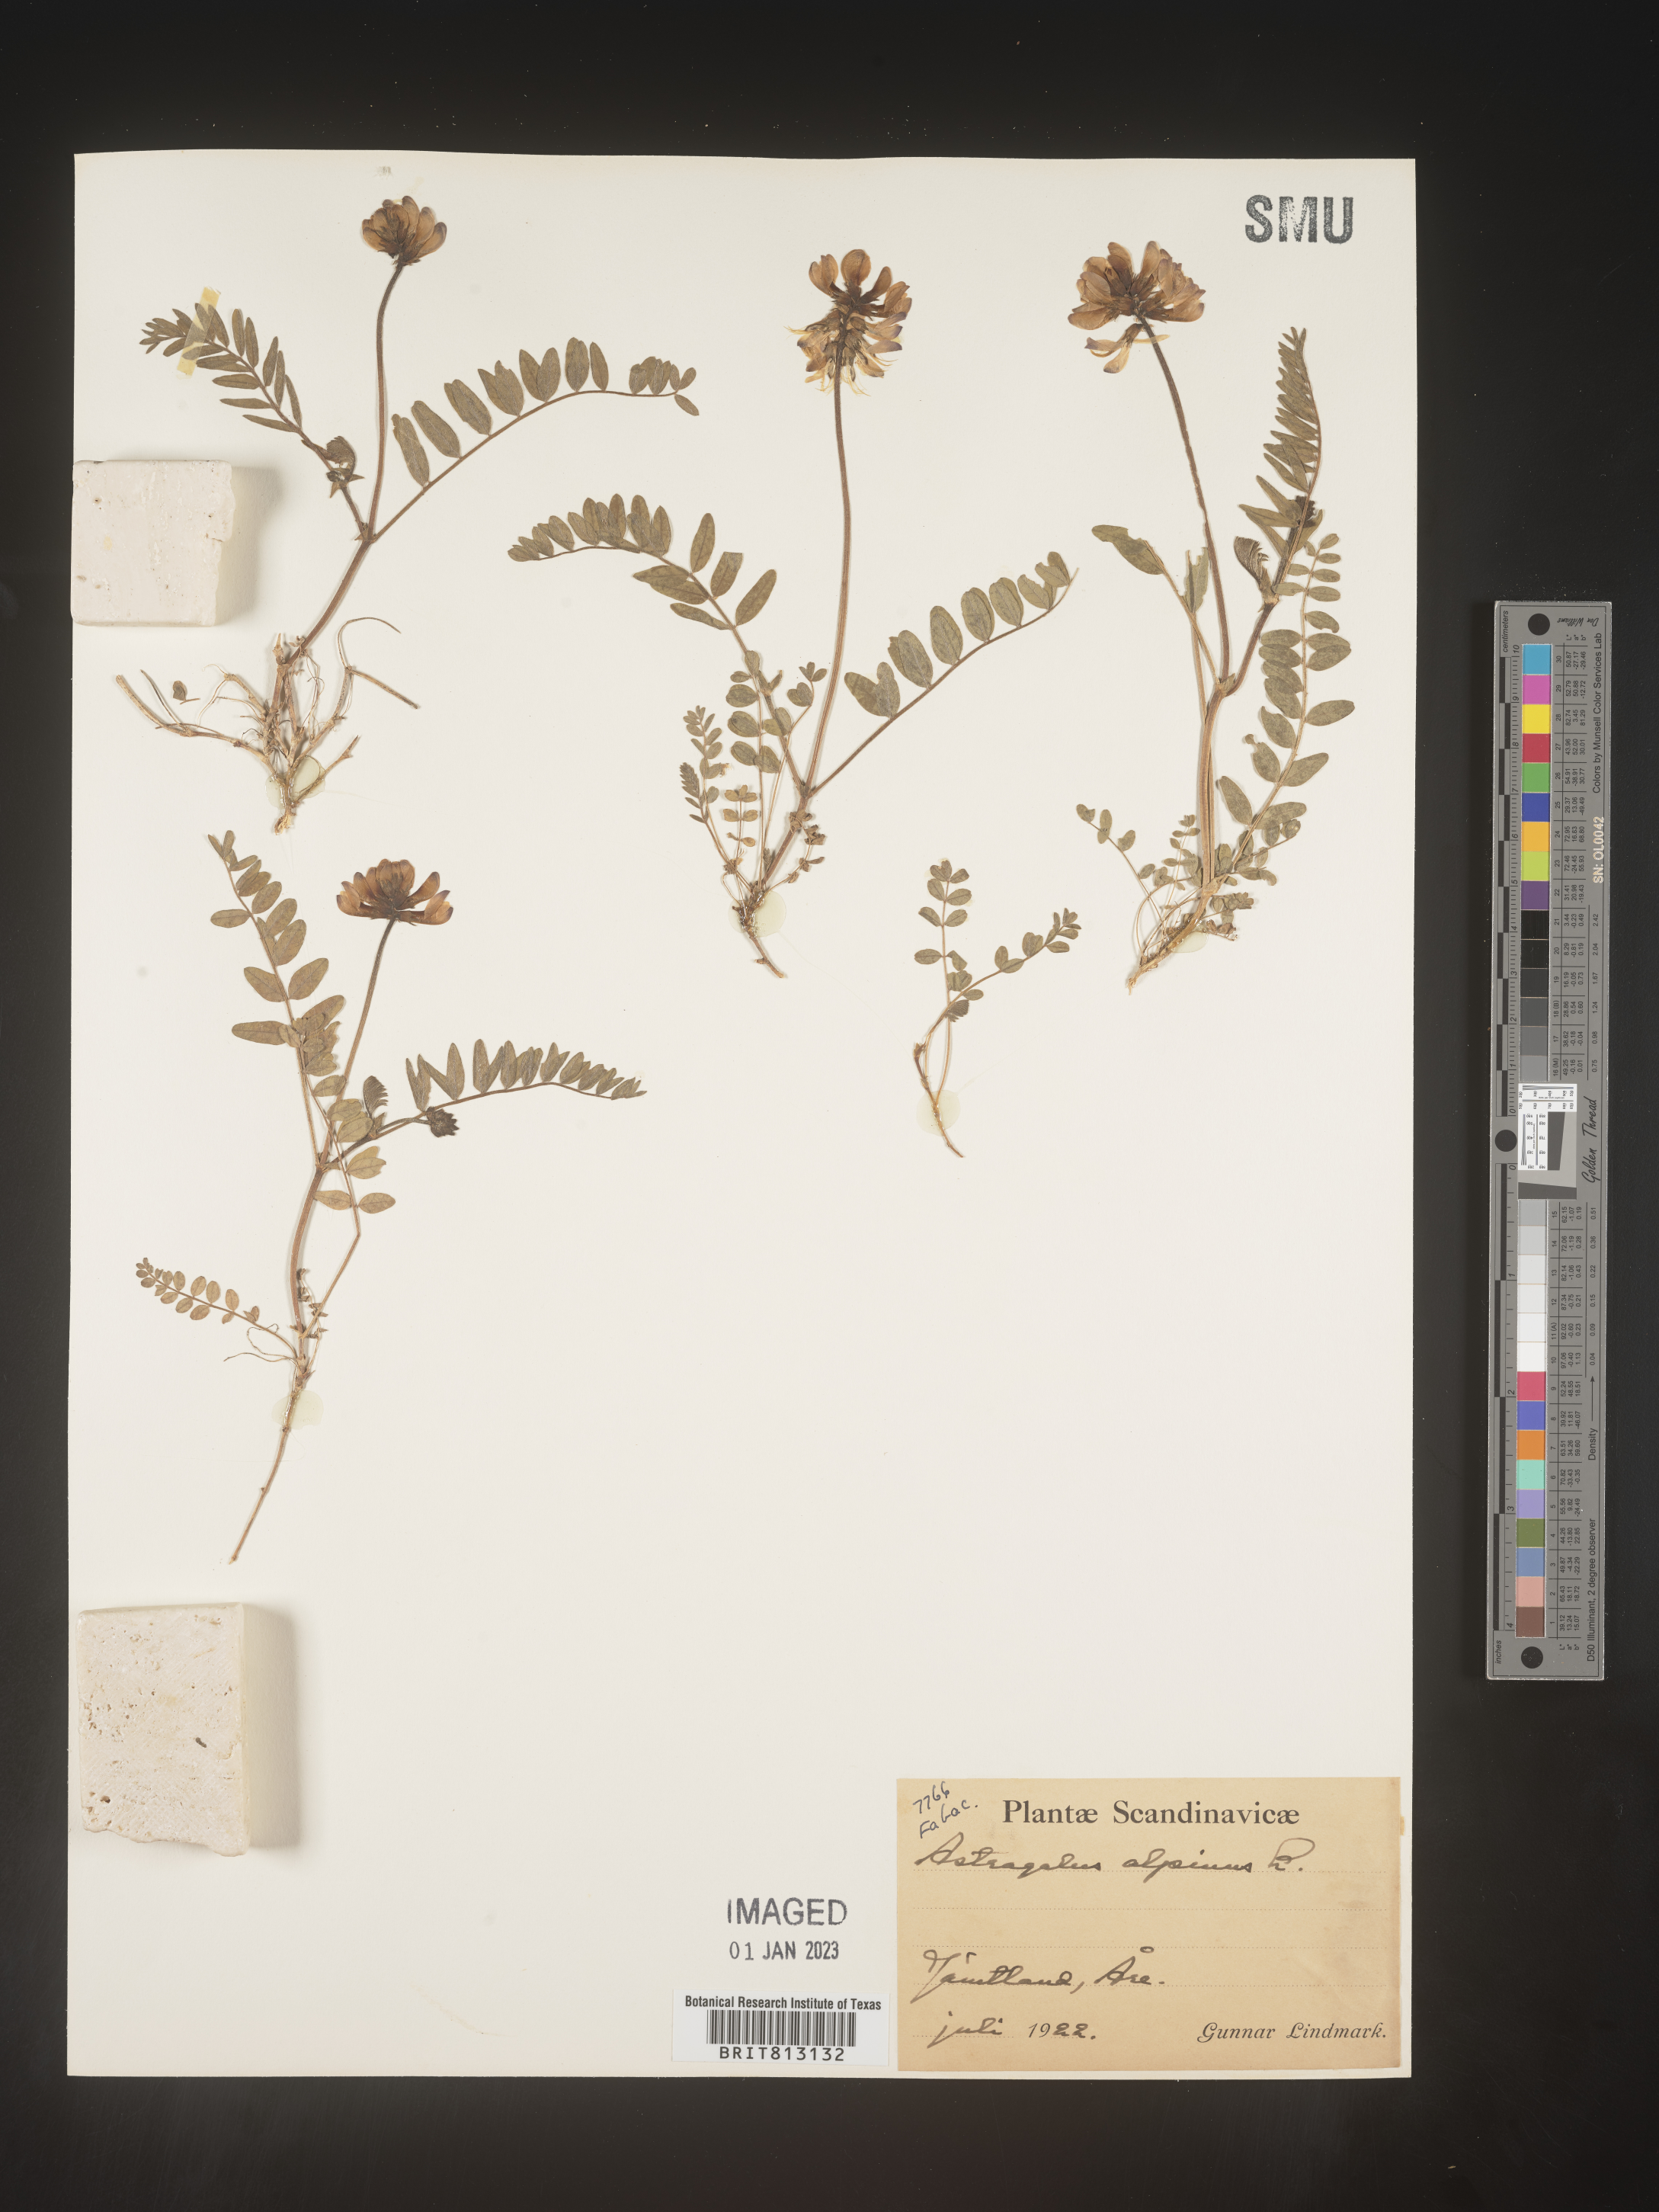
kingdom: Plantae
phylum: Tracheophyta
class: Magnoliopsida
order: Fabales
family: Fabaceae
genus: Astragalus
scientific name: Astragalus
